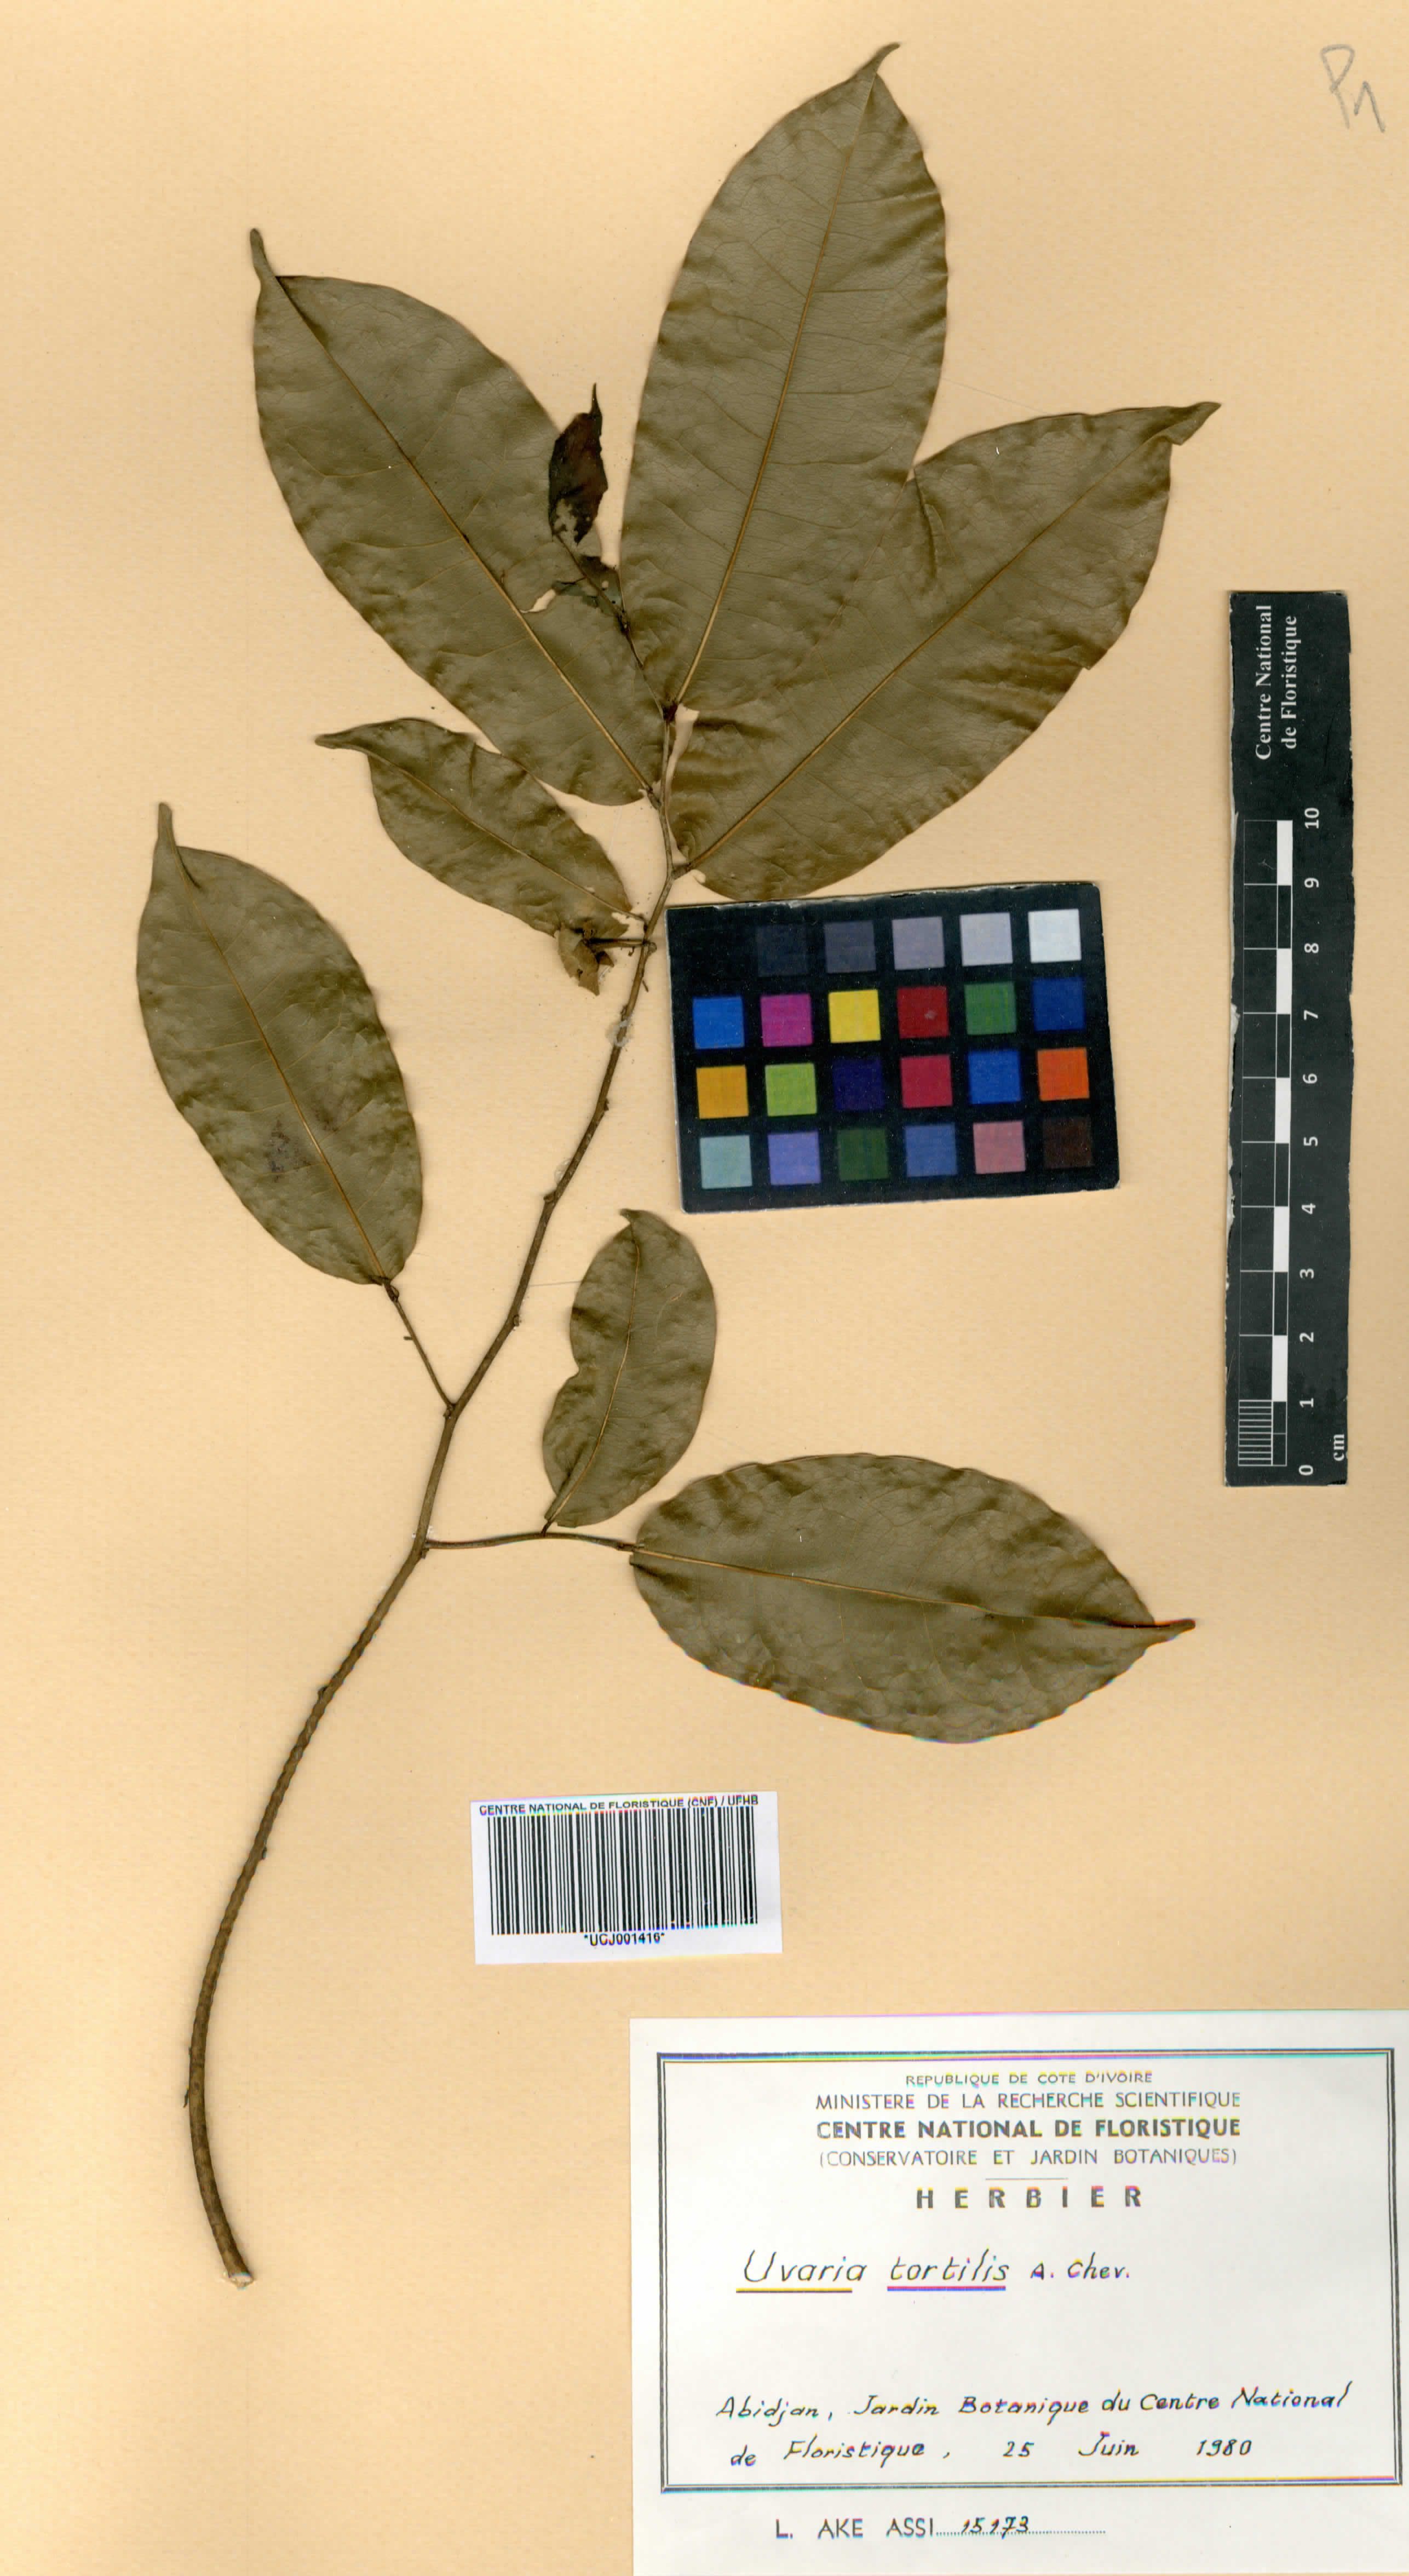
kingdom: Plantae
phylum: Tracheophyta
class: Magnoliopsida
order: Magnoliales
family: Annonaceae
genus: Uvaria
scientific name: Uvaria tortilis
